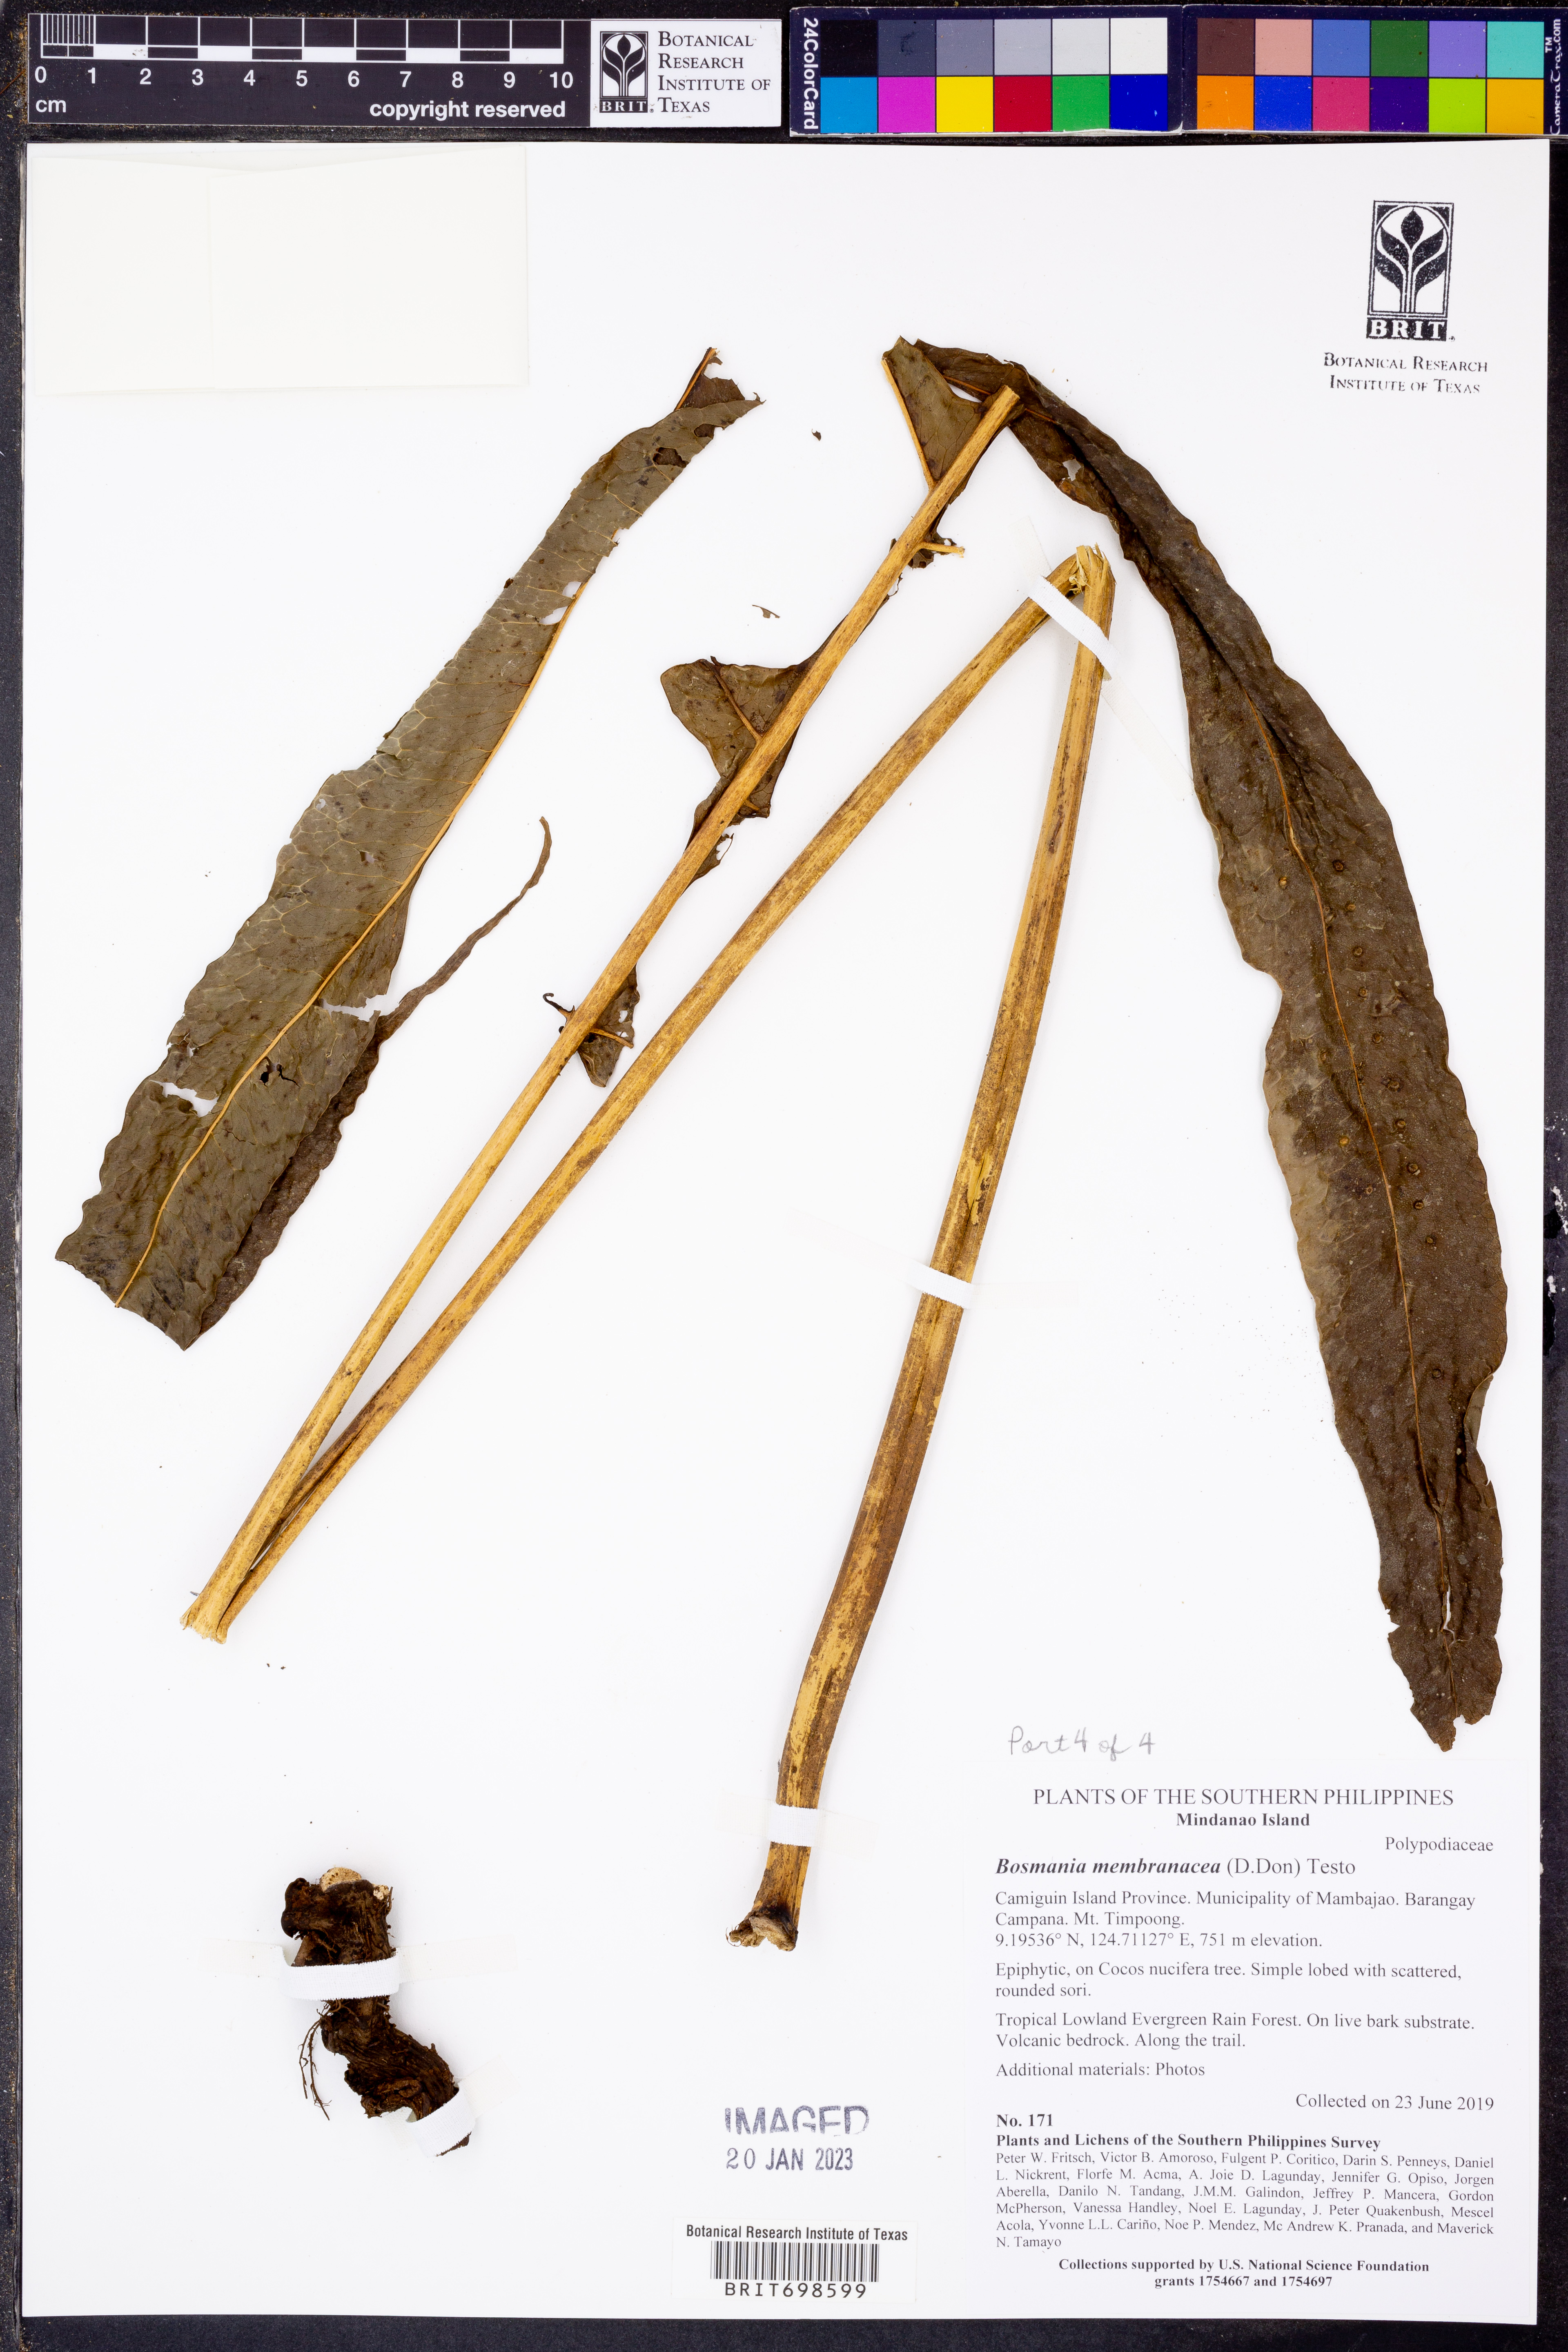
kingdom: Plantae
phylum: Tracheophyta
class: Polypodiopsida
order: Polypodiales
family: Polypodiaceae
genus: Bosmania
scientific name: Bosmania membranacea
